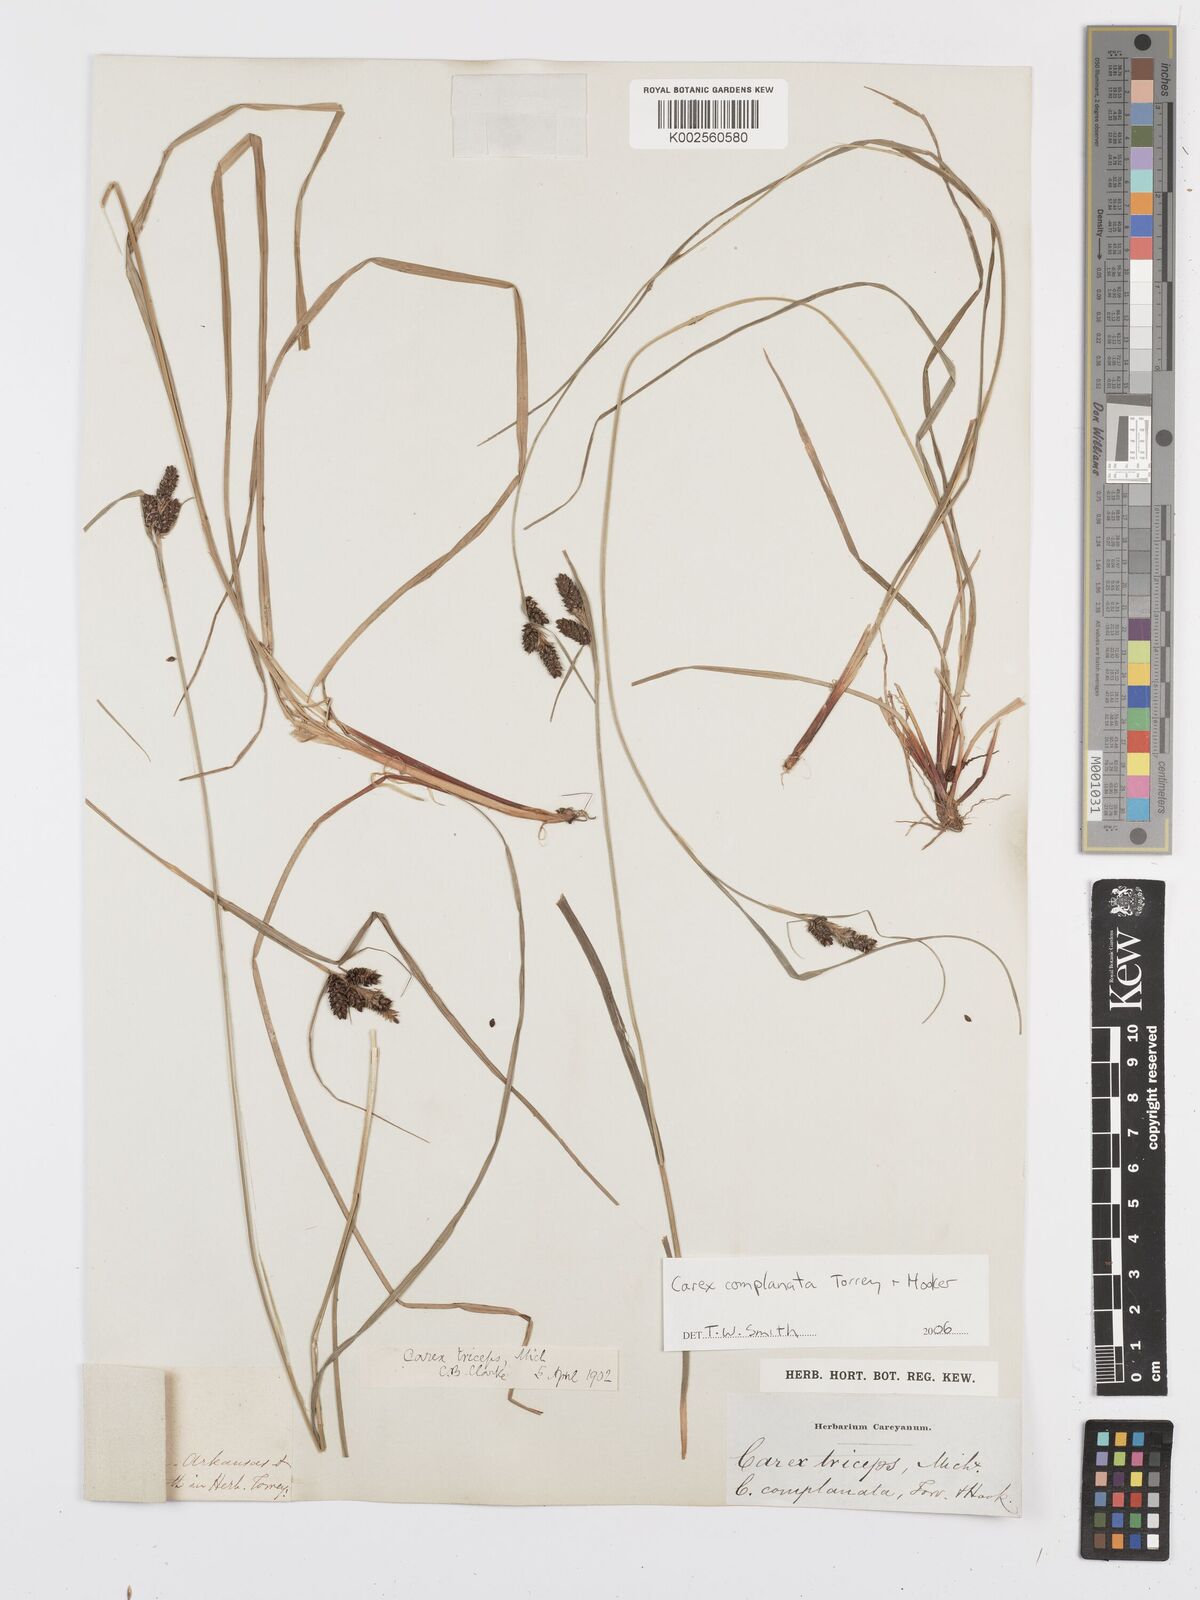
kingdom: Plantae
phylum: Tracheophyta
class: Liliopsida
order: Poales
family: Cyperaceae
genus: Carex
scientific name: Carex complanata
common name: Hirsute sedge
